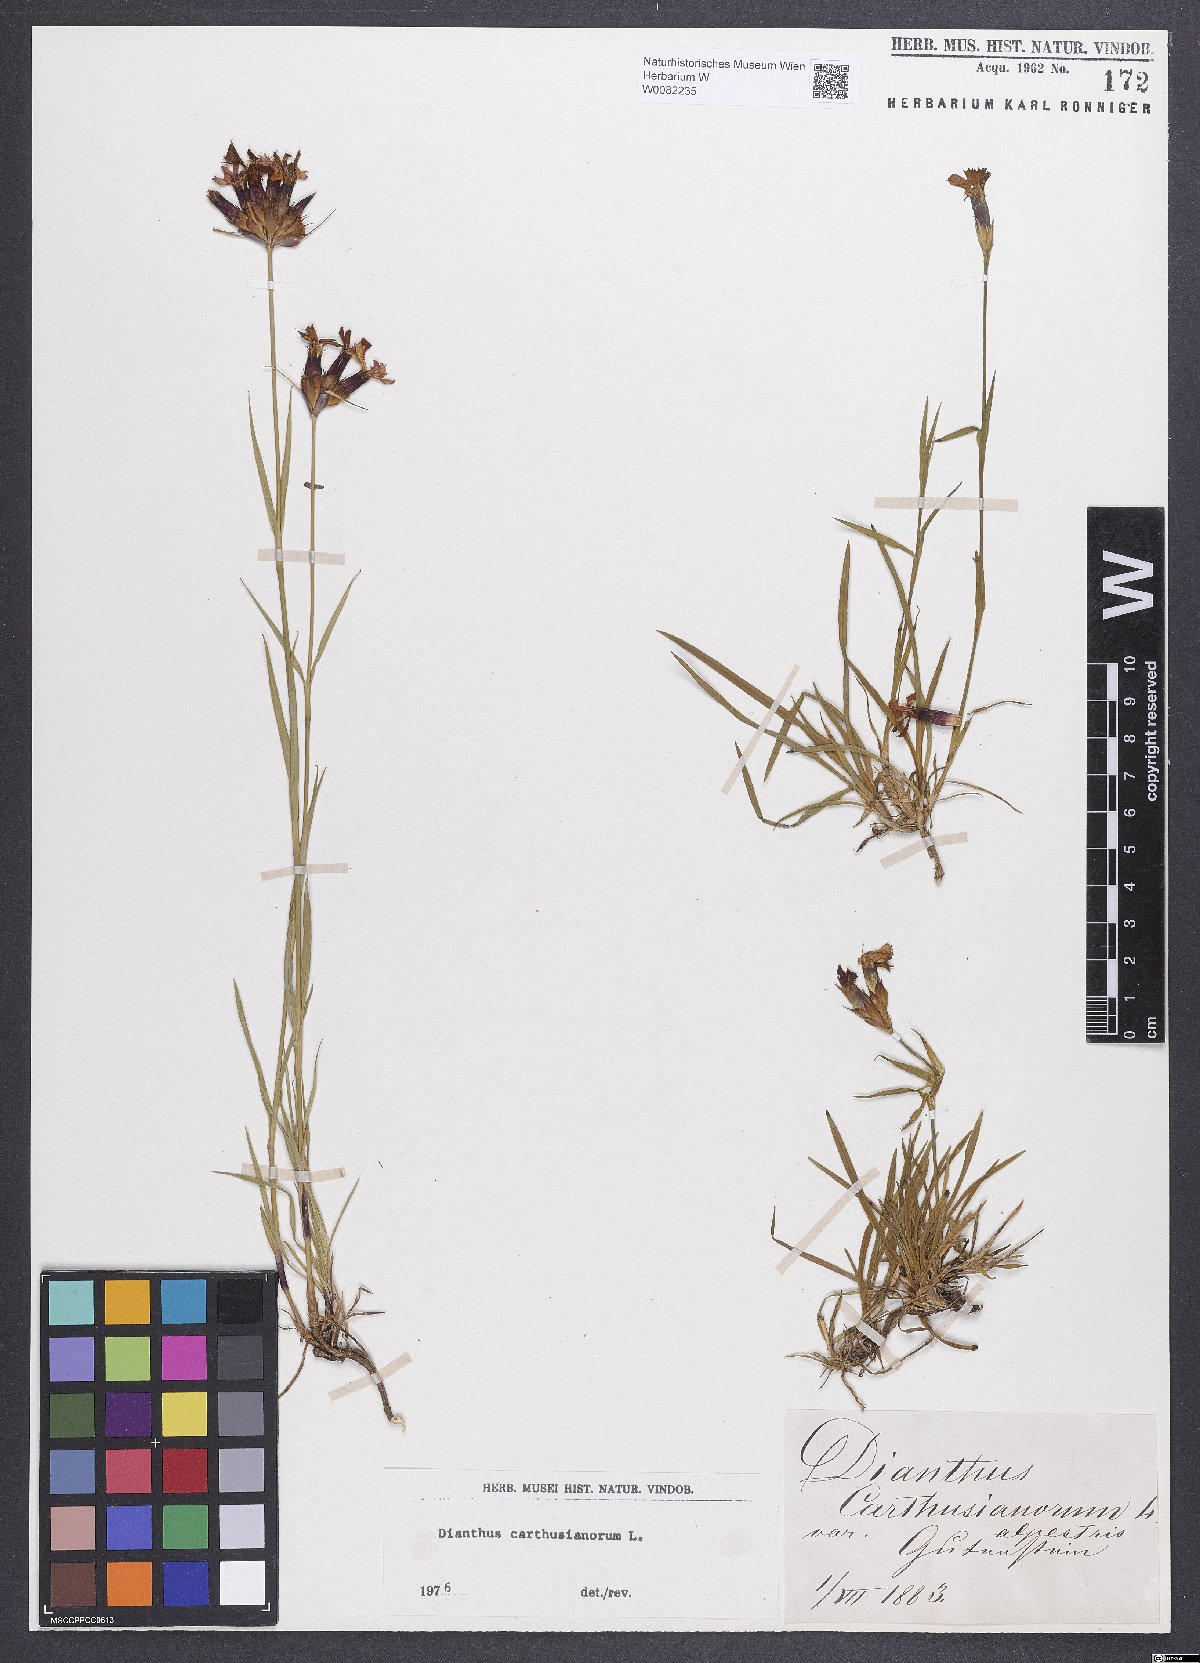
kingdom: Plantae
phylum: Tracheophyta
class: Magnoliopsida
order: Caryophyllales
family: Caryophyllaceae
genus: Dianthus
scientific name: Dianthus carthusianorum
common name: Carthusian pink
